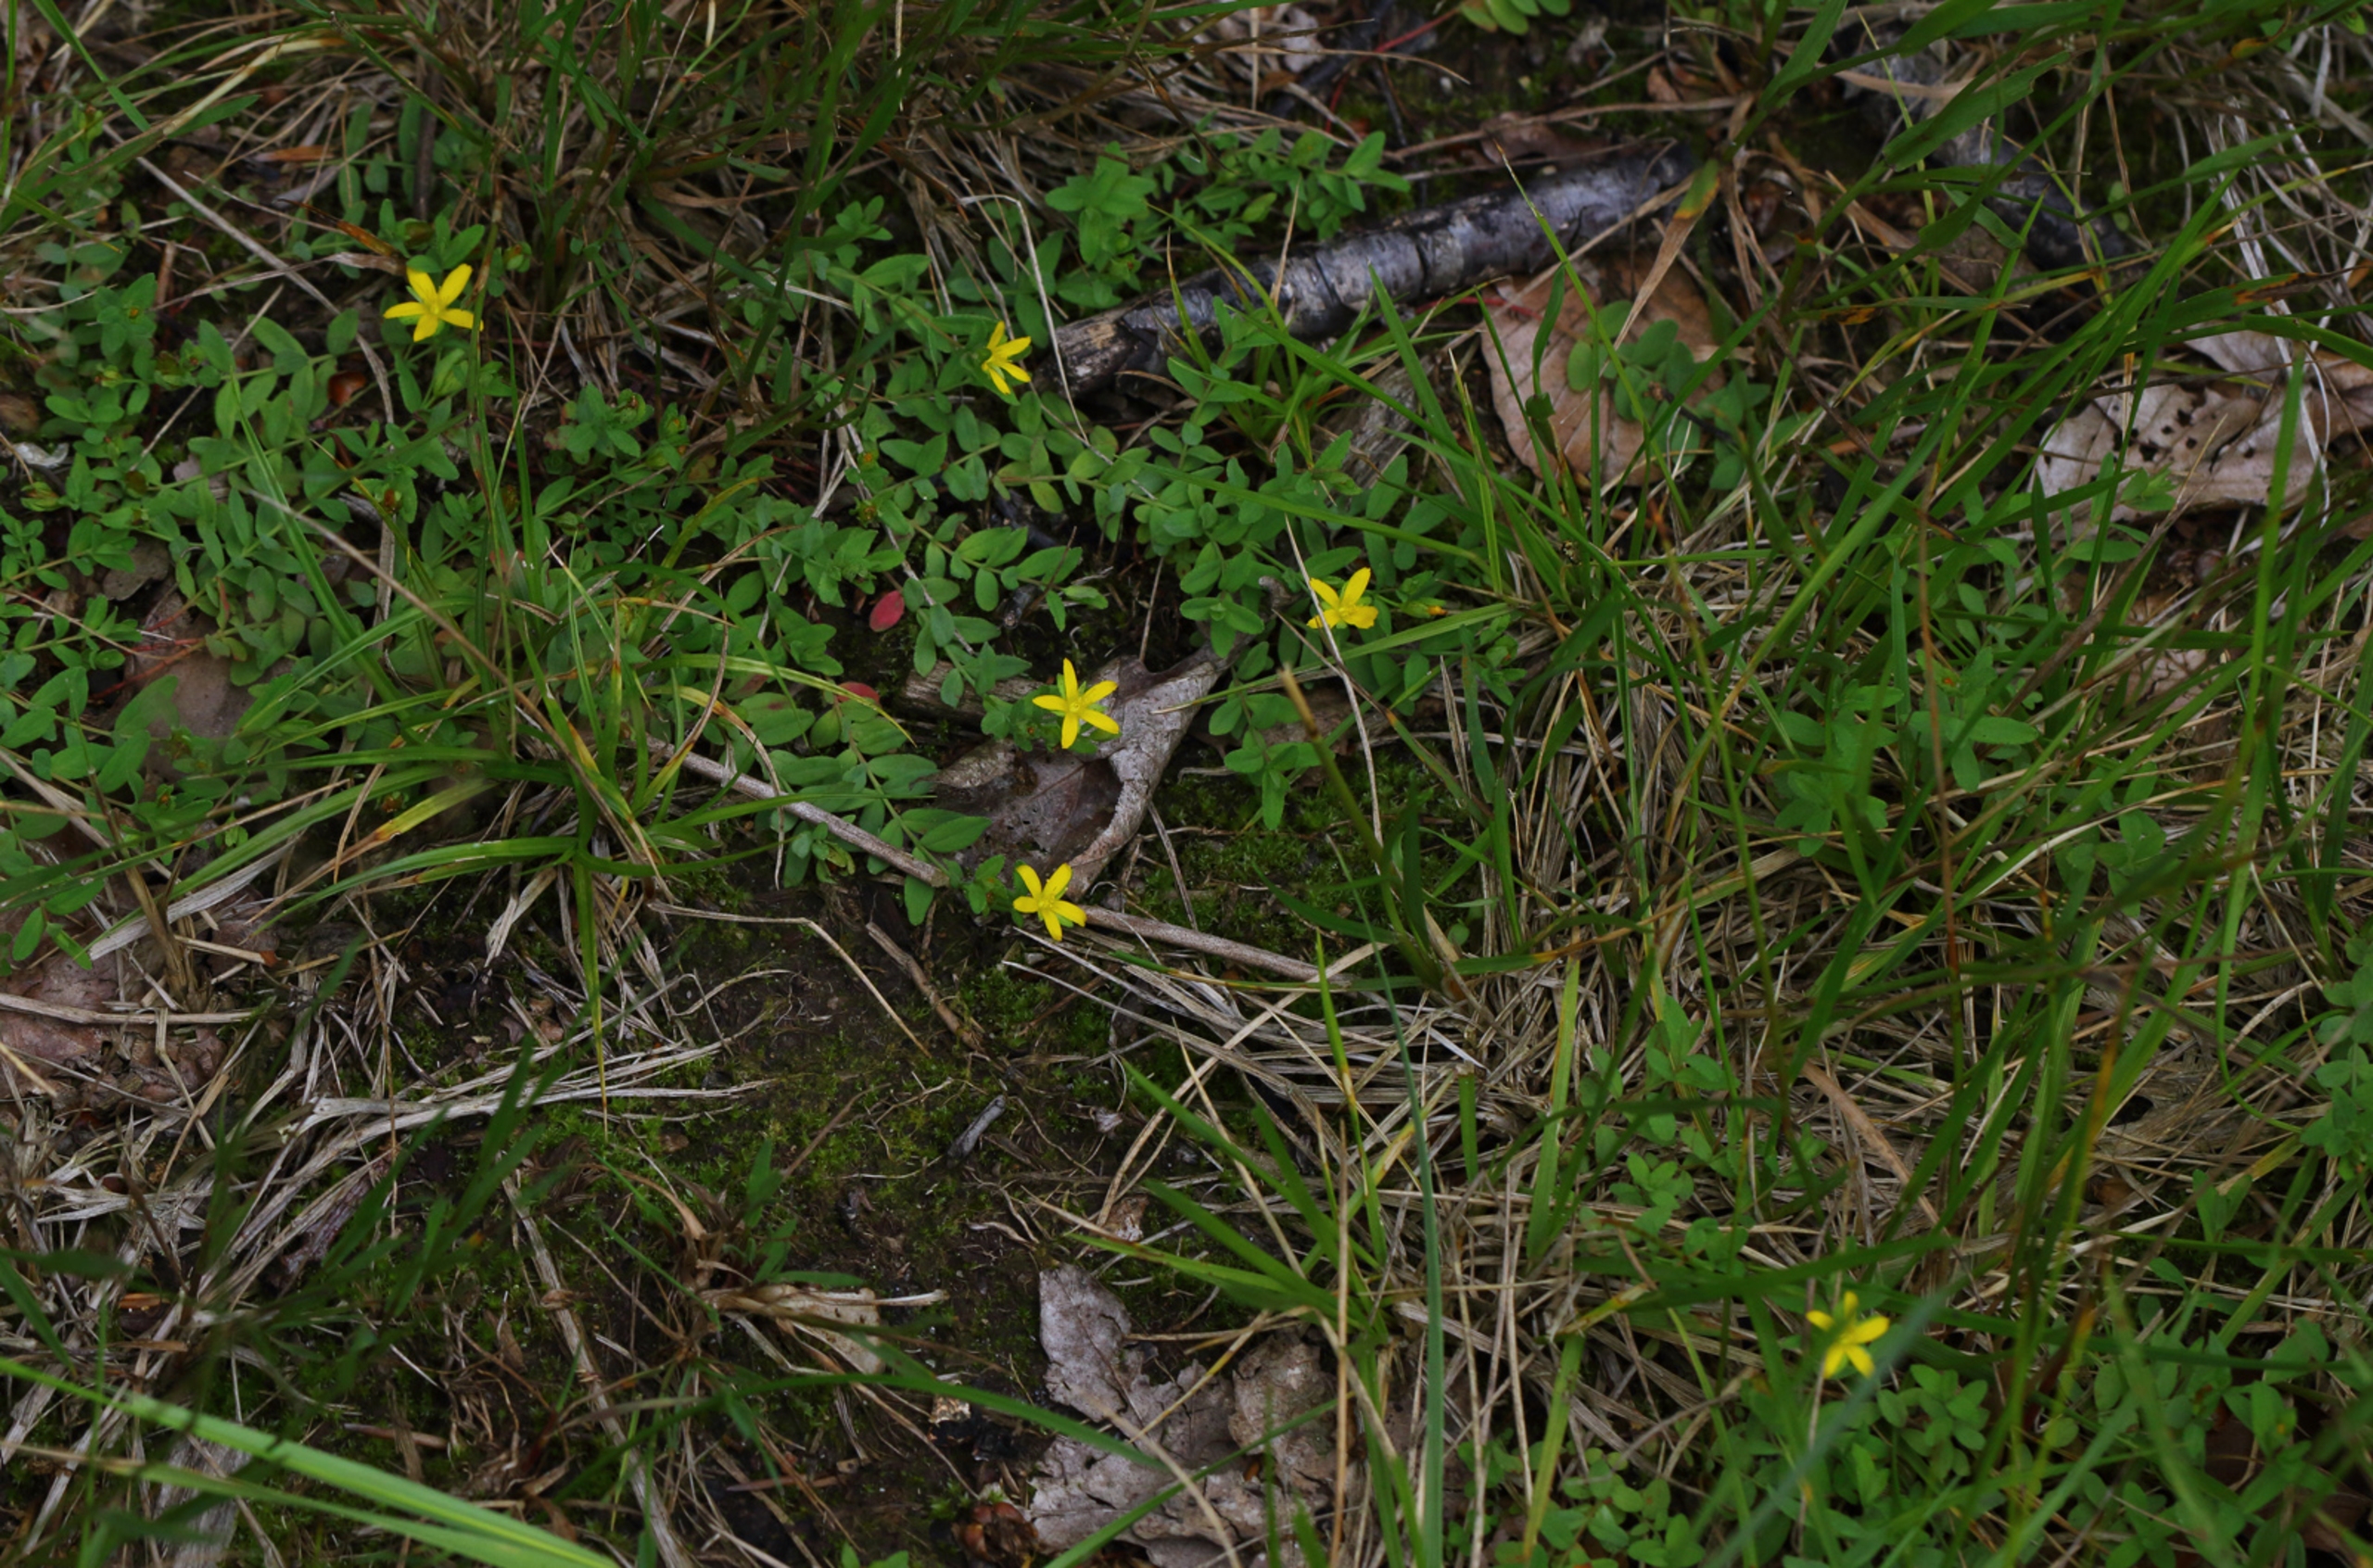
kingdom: Plantae
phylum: Tracheophyta
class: Magnoliopsida
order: Malpighiales
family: Hypericaceae
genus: Hypericum
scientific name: Hypericum humifusum
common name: Dværg-perikon
